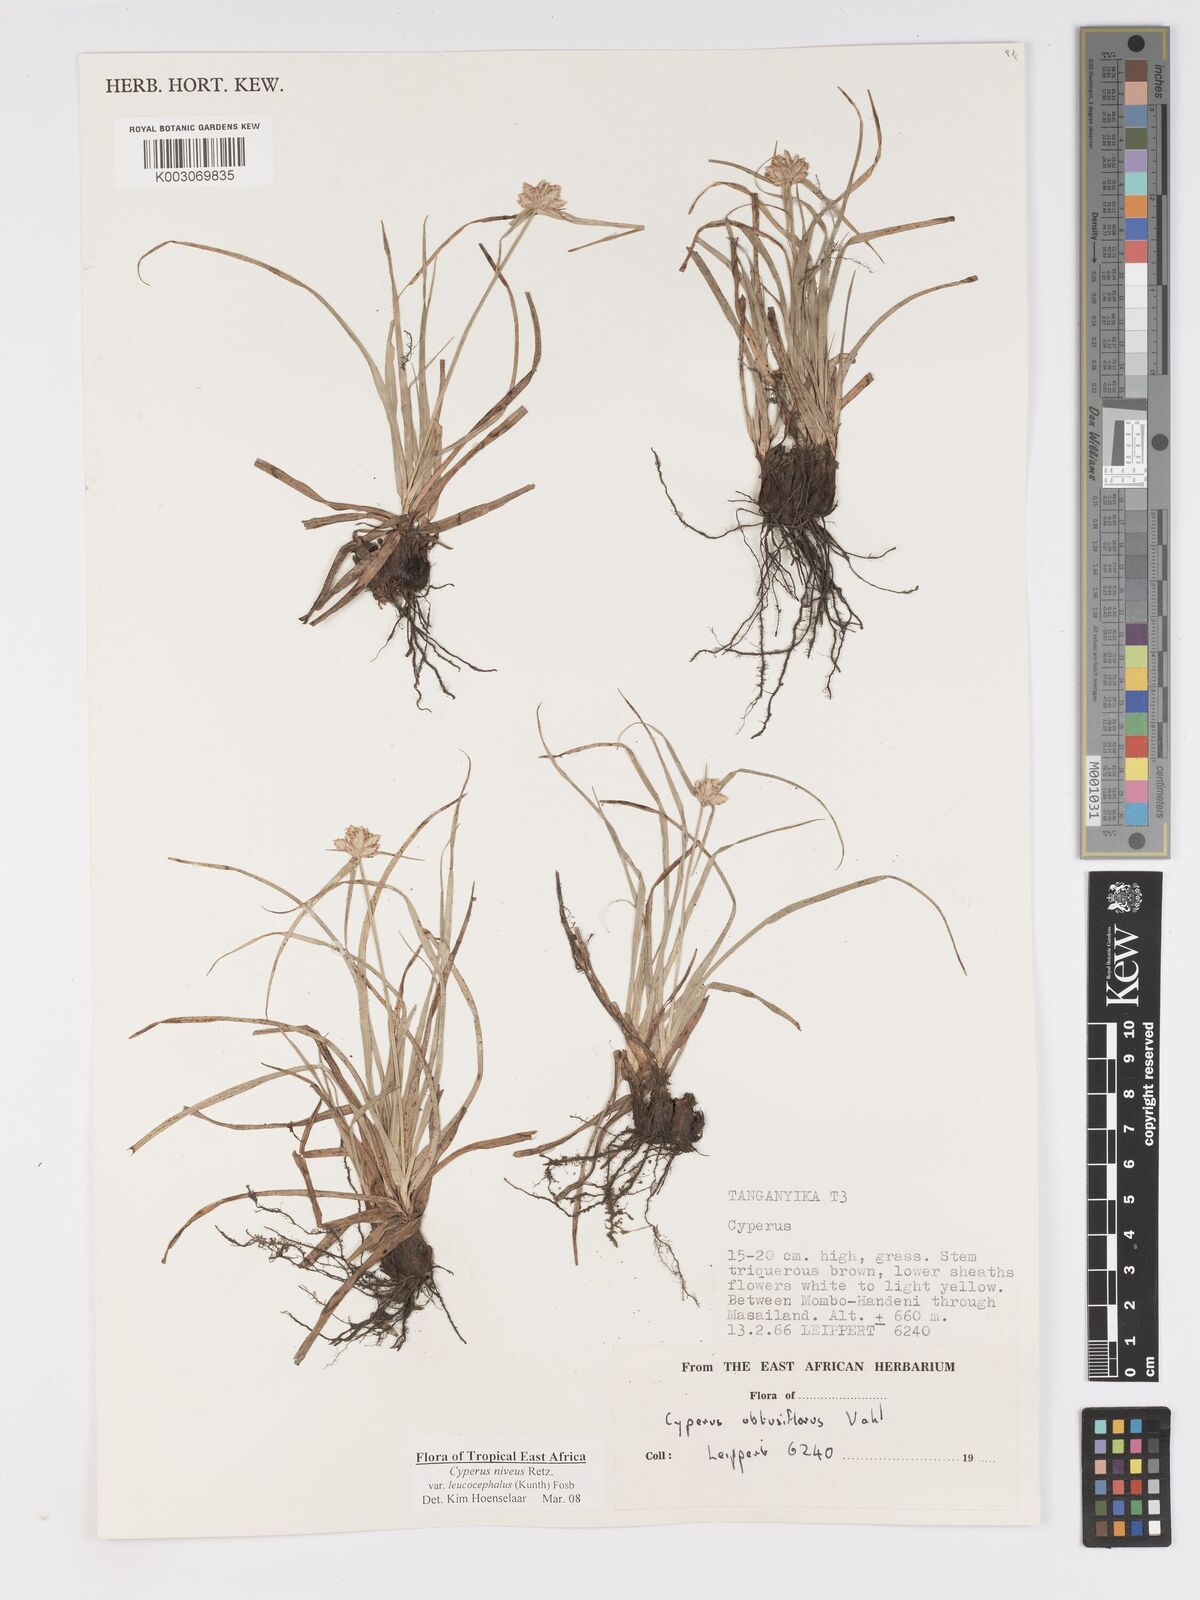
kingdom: Plantae
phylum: Tracheophyta
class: Liliopsida
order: Poales
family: Cyperaceae
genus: Cyperus
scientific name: Cyperus niveus
